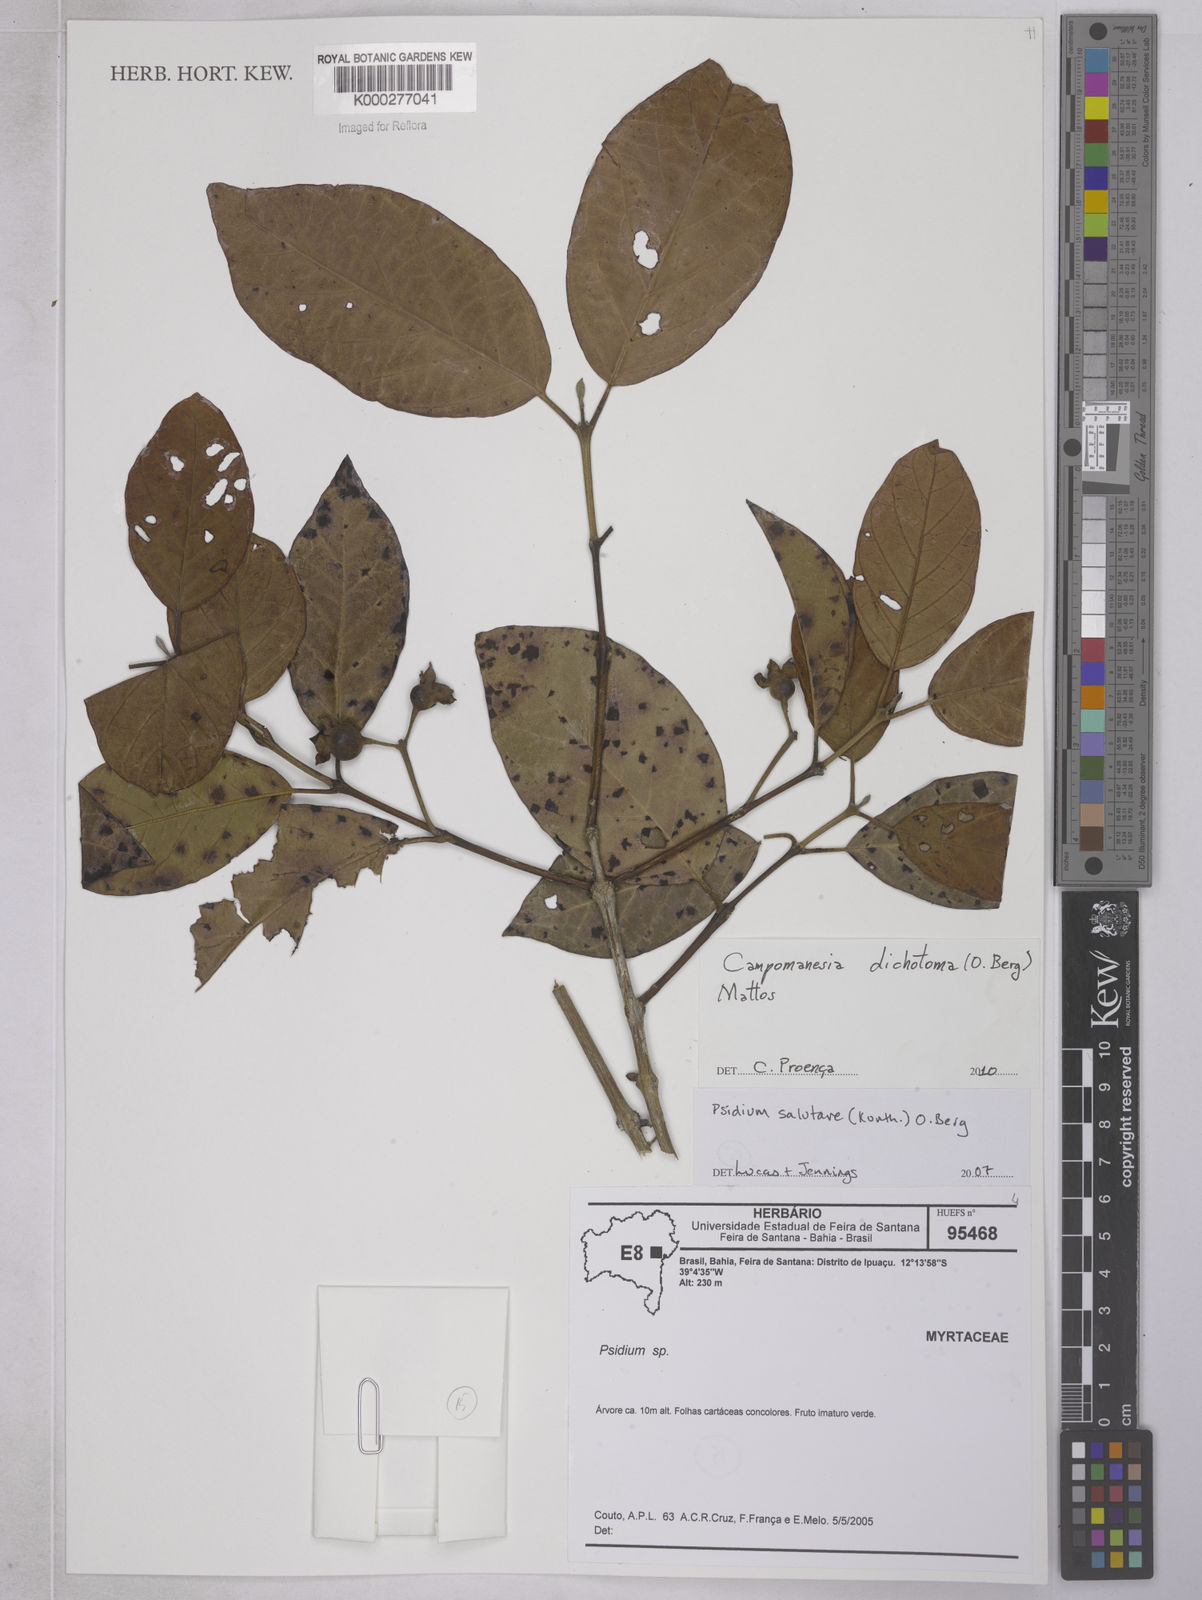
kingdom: Plantae
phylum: Tracheophyta
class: Magnoliopsida
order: Myrtales
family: Myrtaceae
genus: Campomanesia
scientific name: Campomanesia dichotoma
